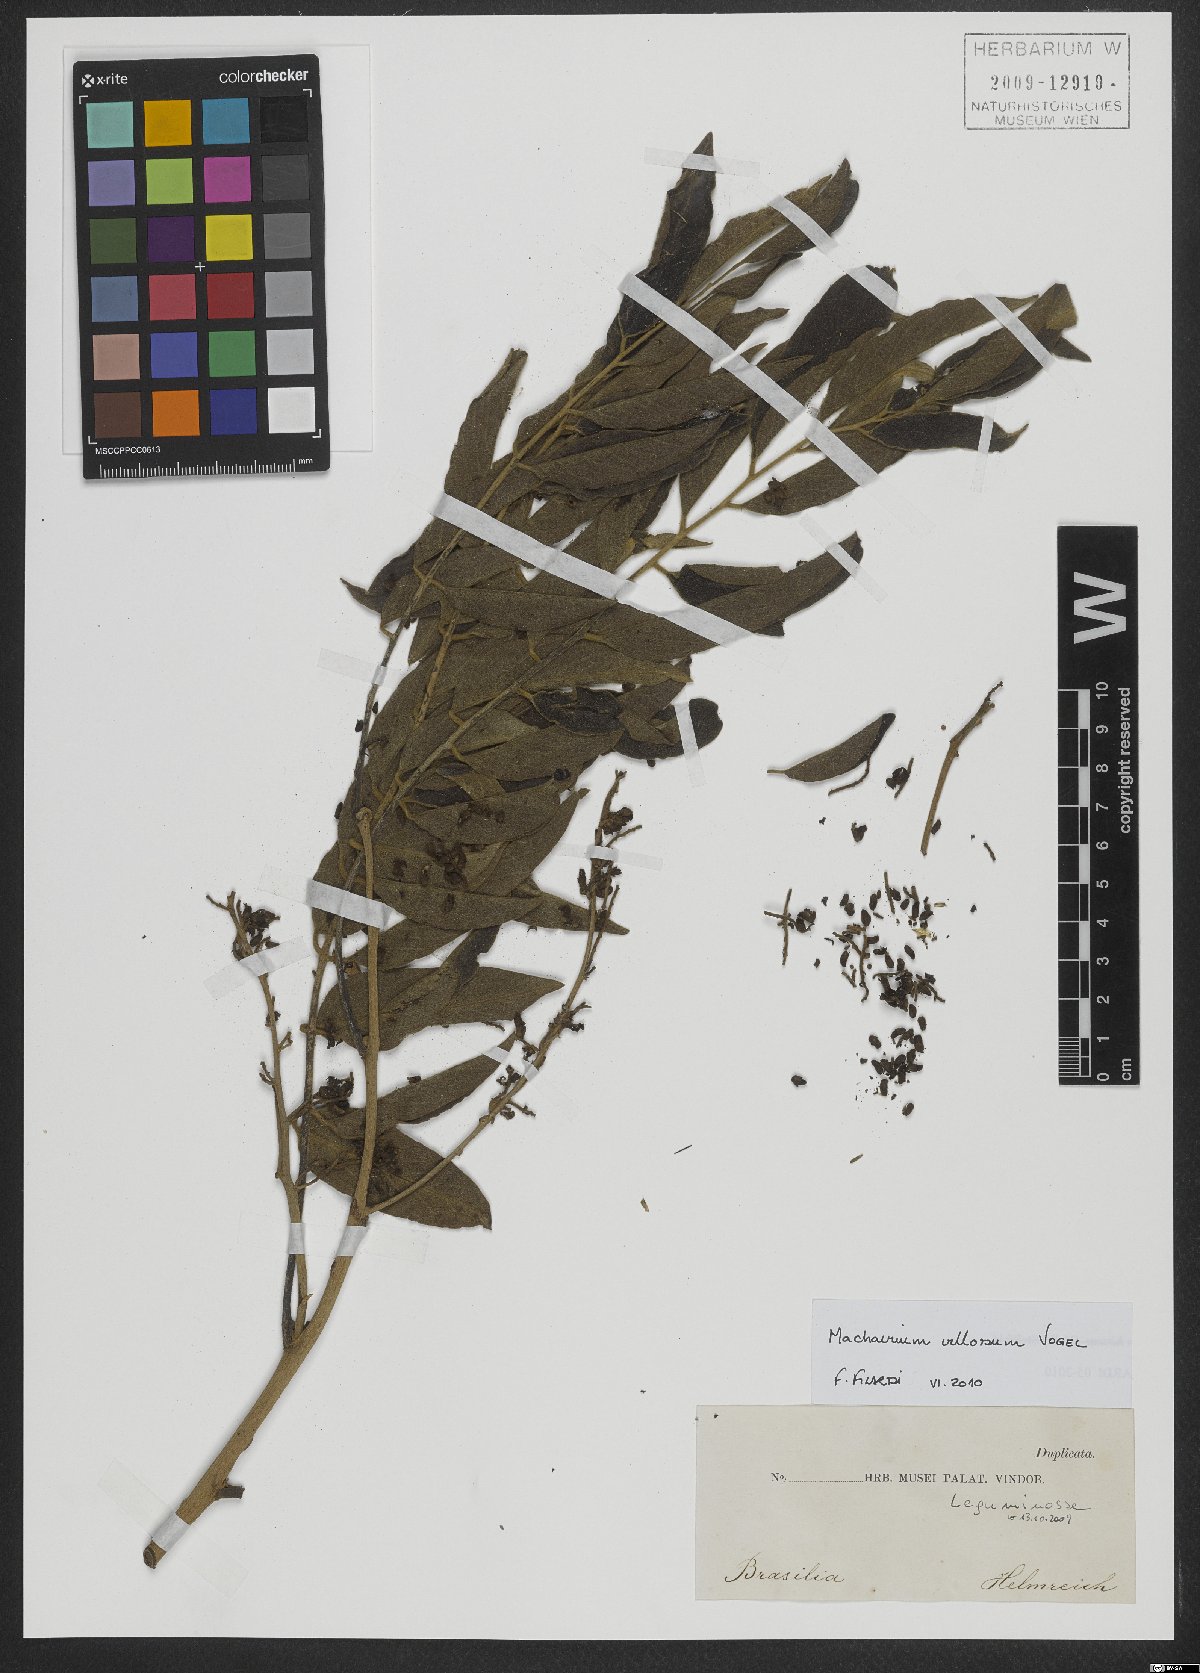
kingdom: Plantae
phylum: Tracheophyta
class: Magnoliopsida
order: Fabales
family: Fabaceae
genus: Machaerium
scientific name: Machaerium villosum
